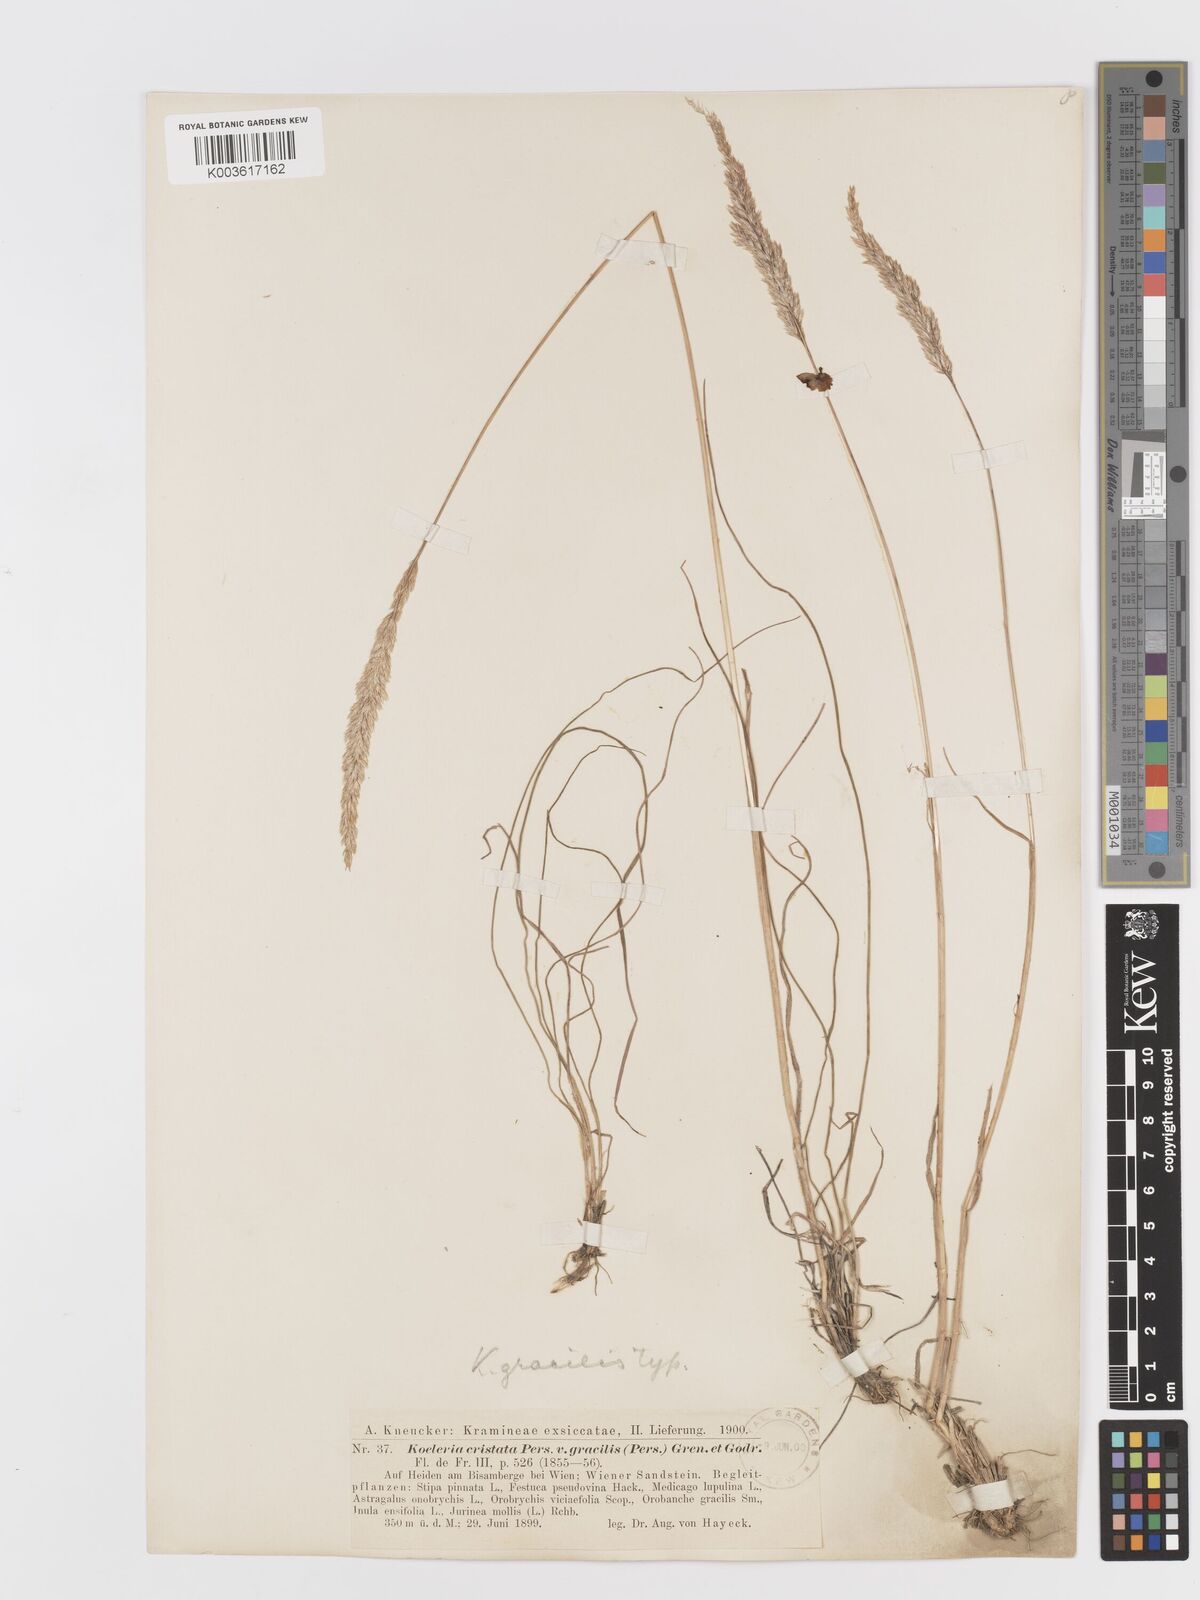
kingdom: Plantae
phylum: Tracheophyta
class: Liliopsida
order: Poales
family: Poaceae
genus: Koeleria
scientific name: Koeleria macrantha
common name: Crested hair-grass
